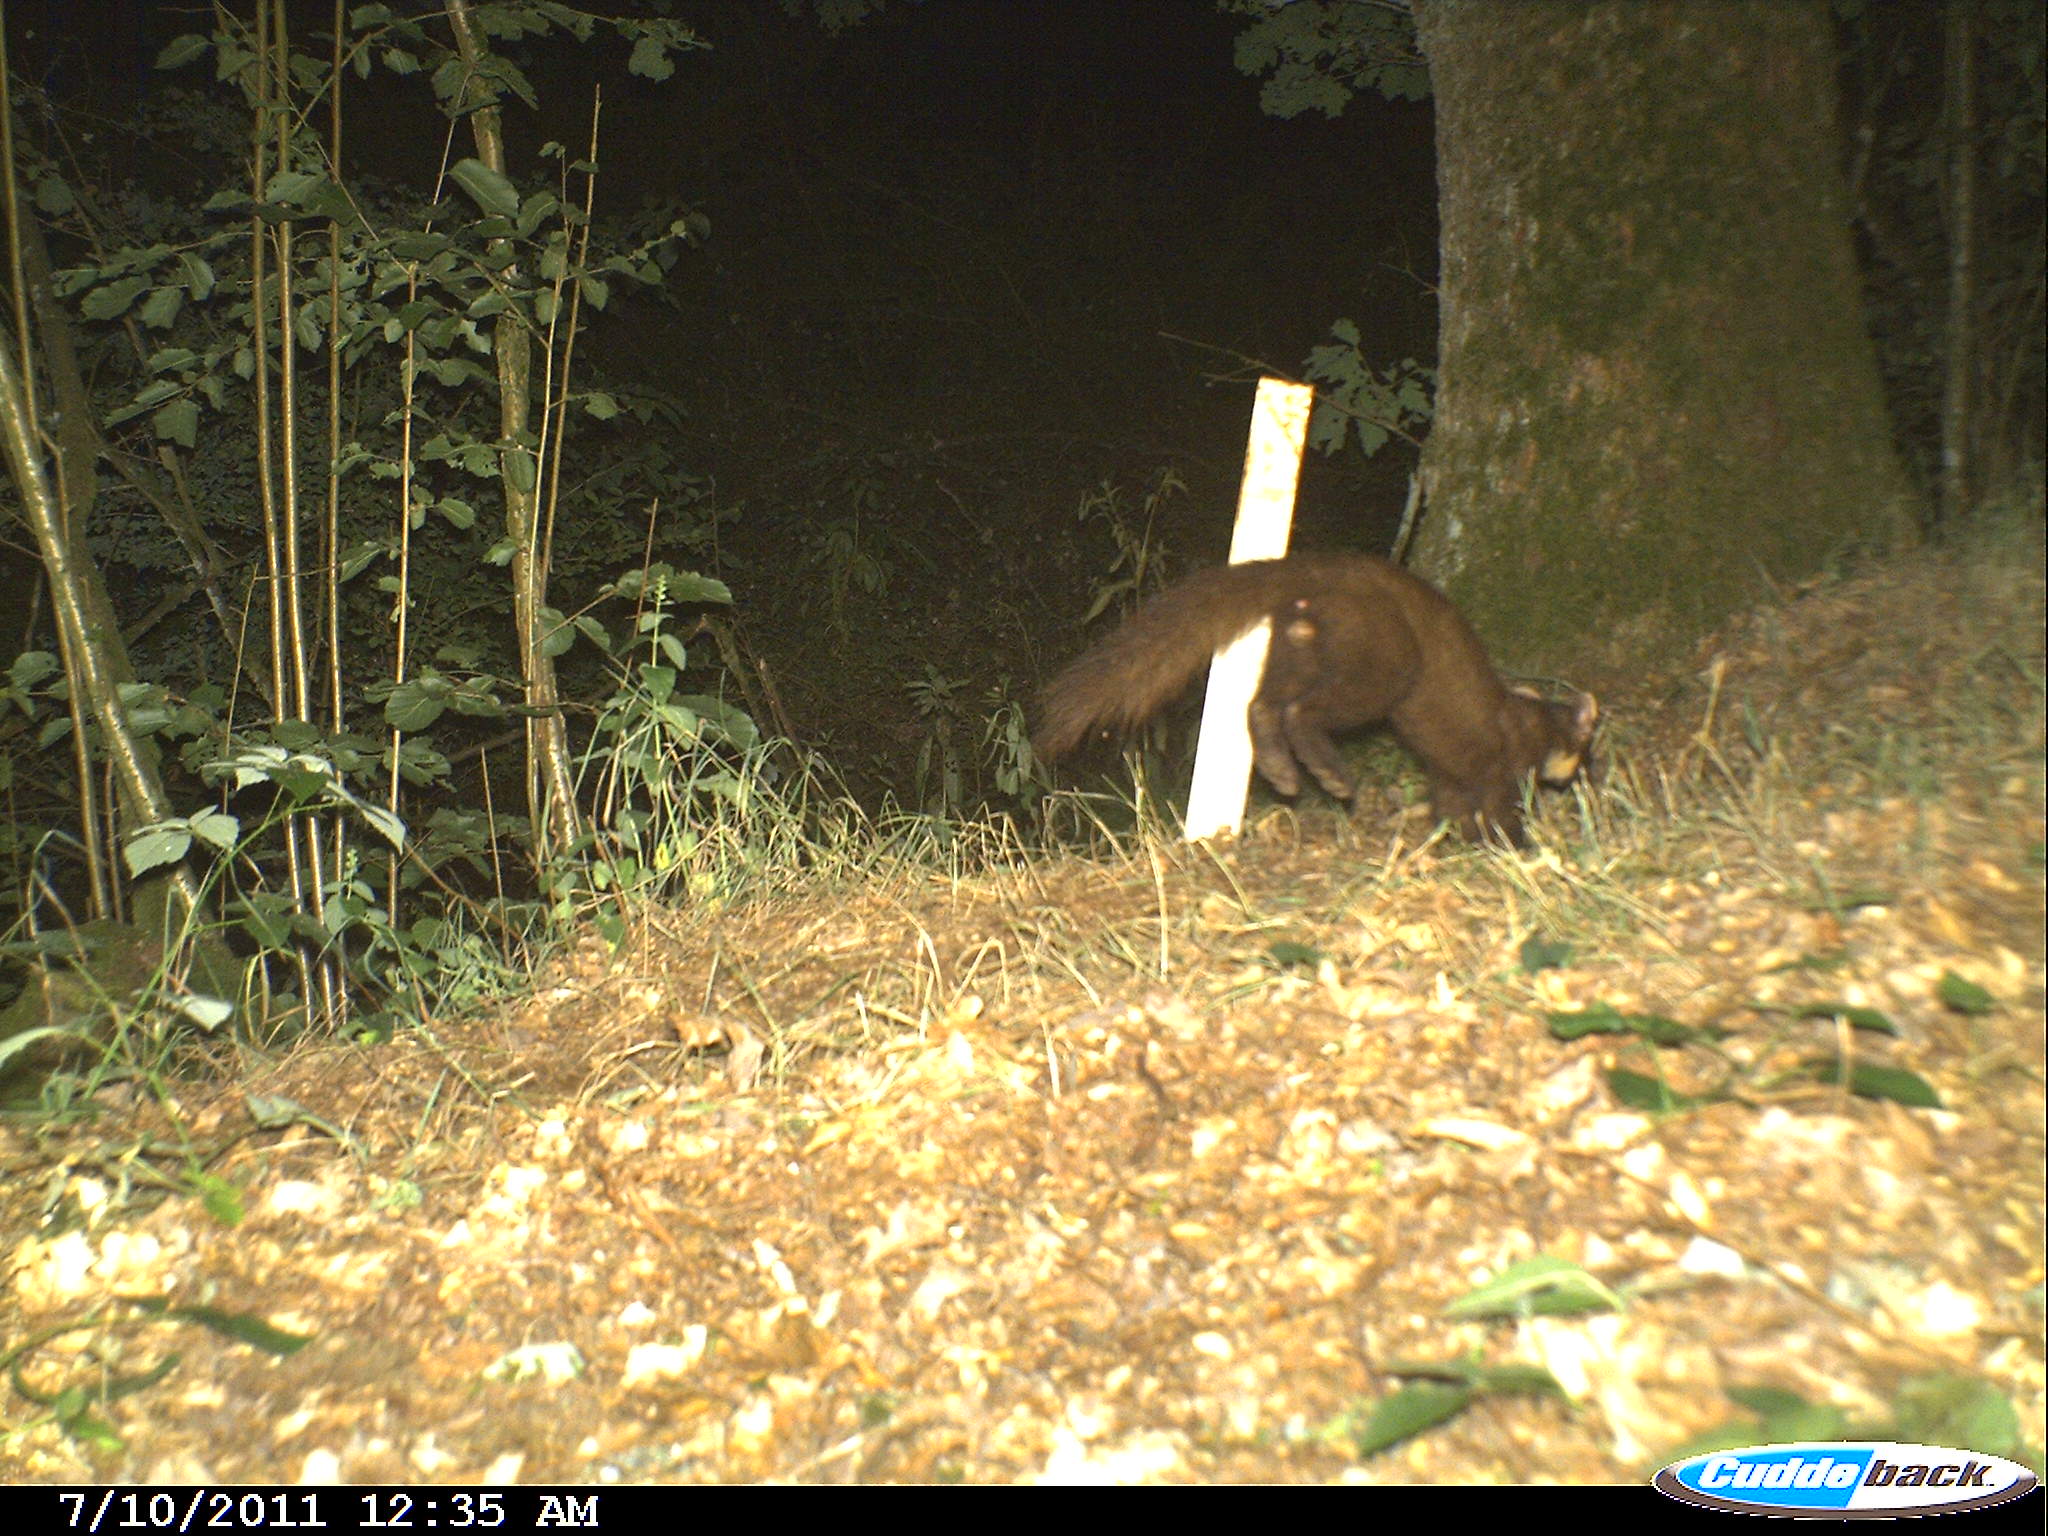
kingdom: Animalia
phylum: Chordata
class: Mammalia
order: Carnivora
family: Mustelidae
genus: Martes
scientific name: Martes martes
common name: European pine marten
